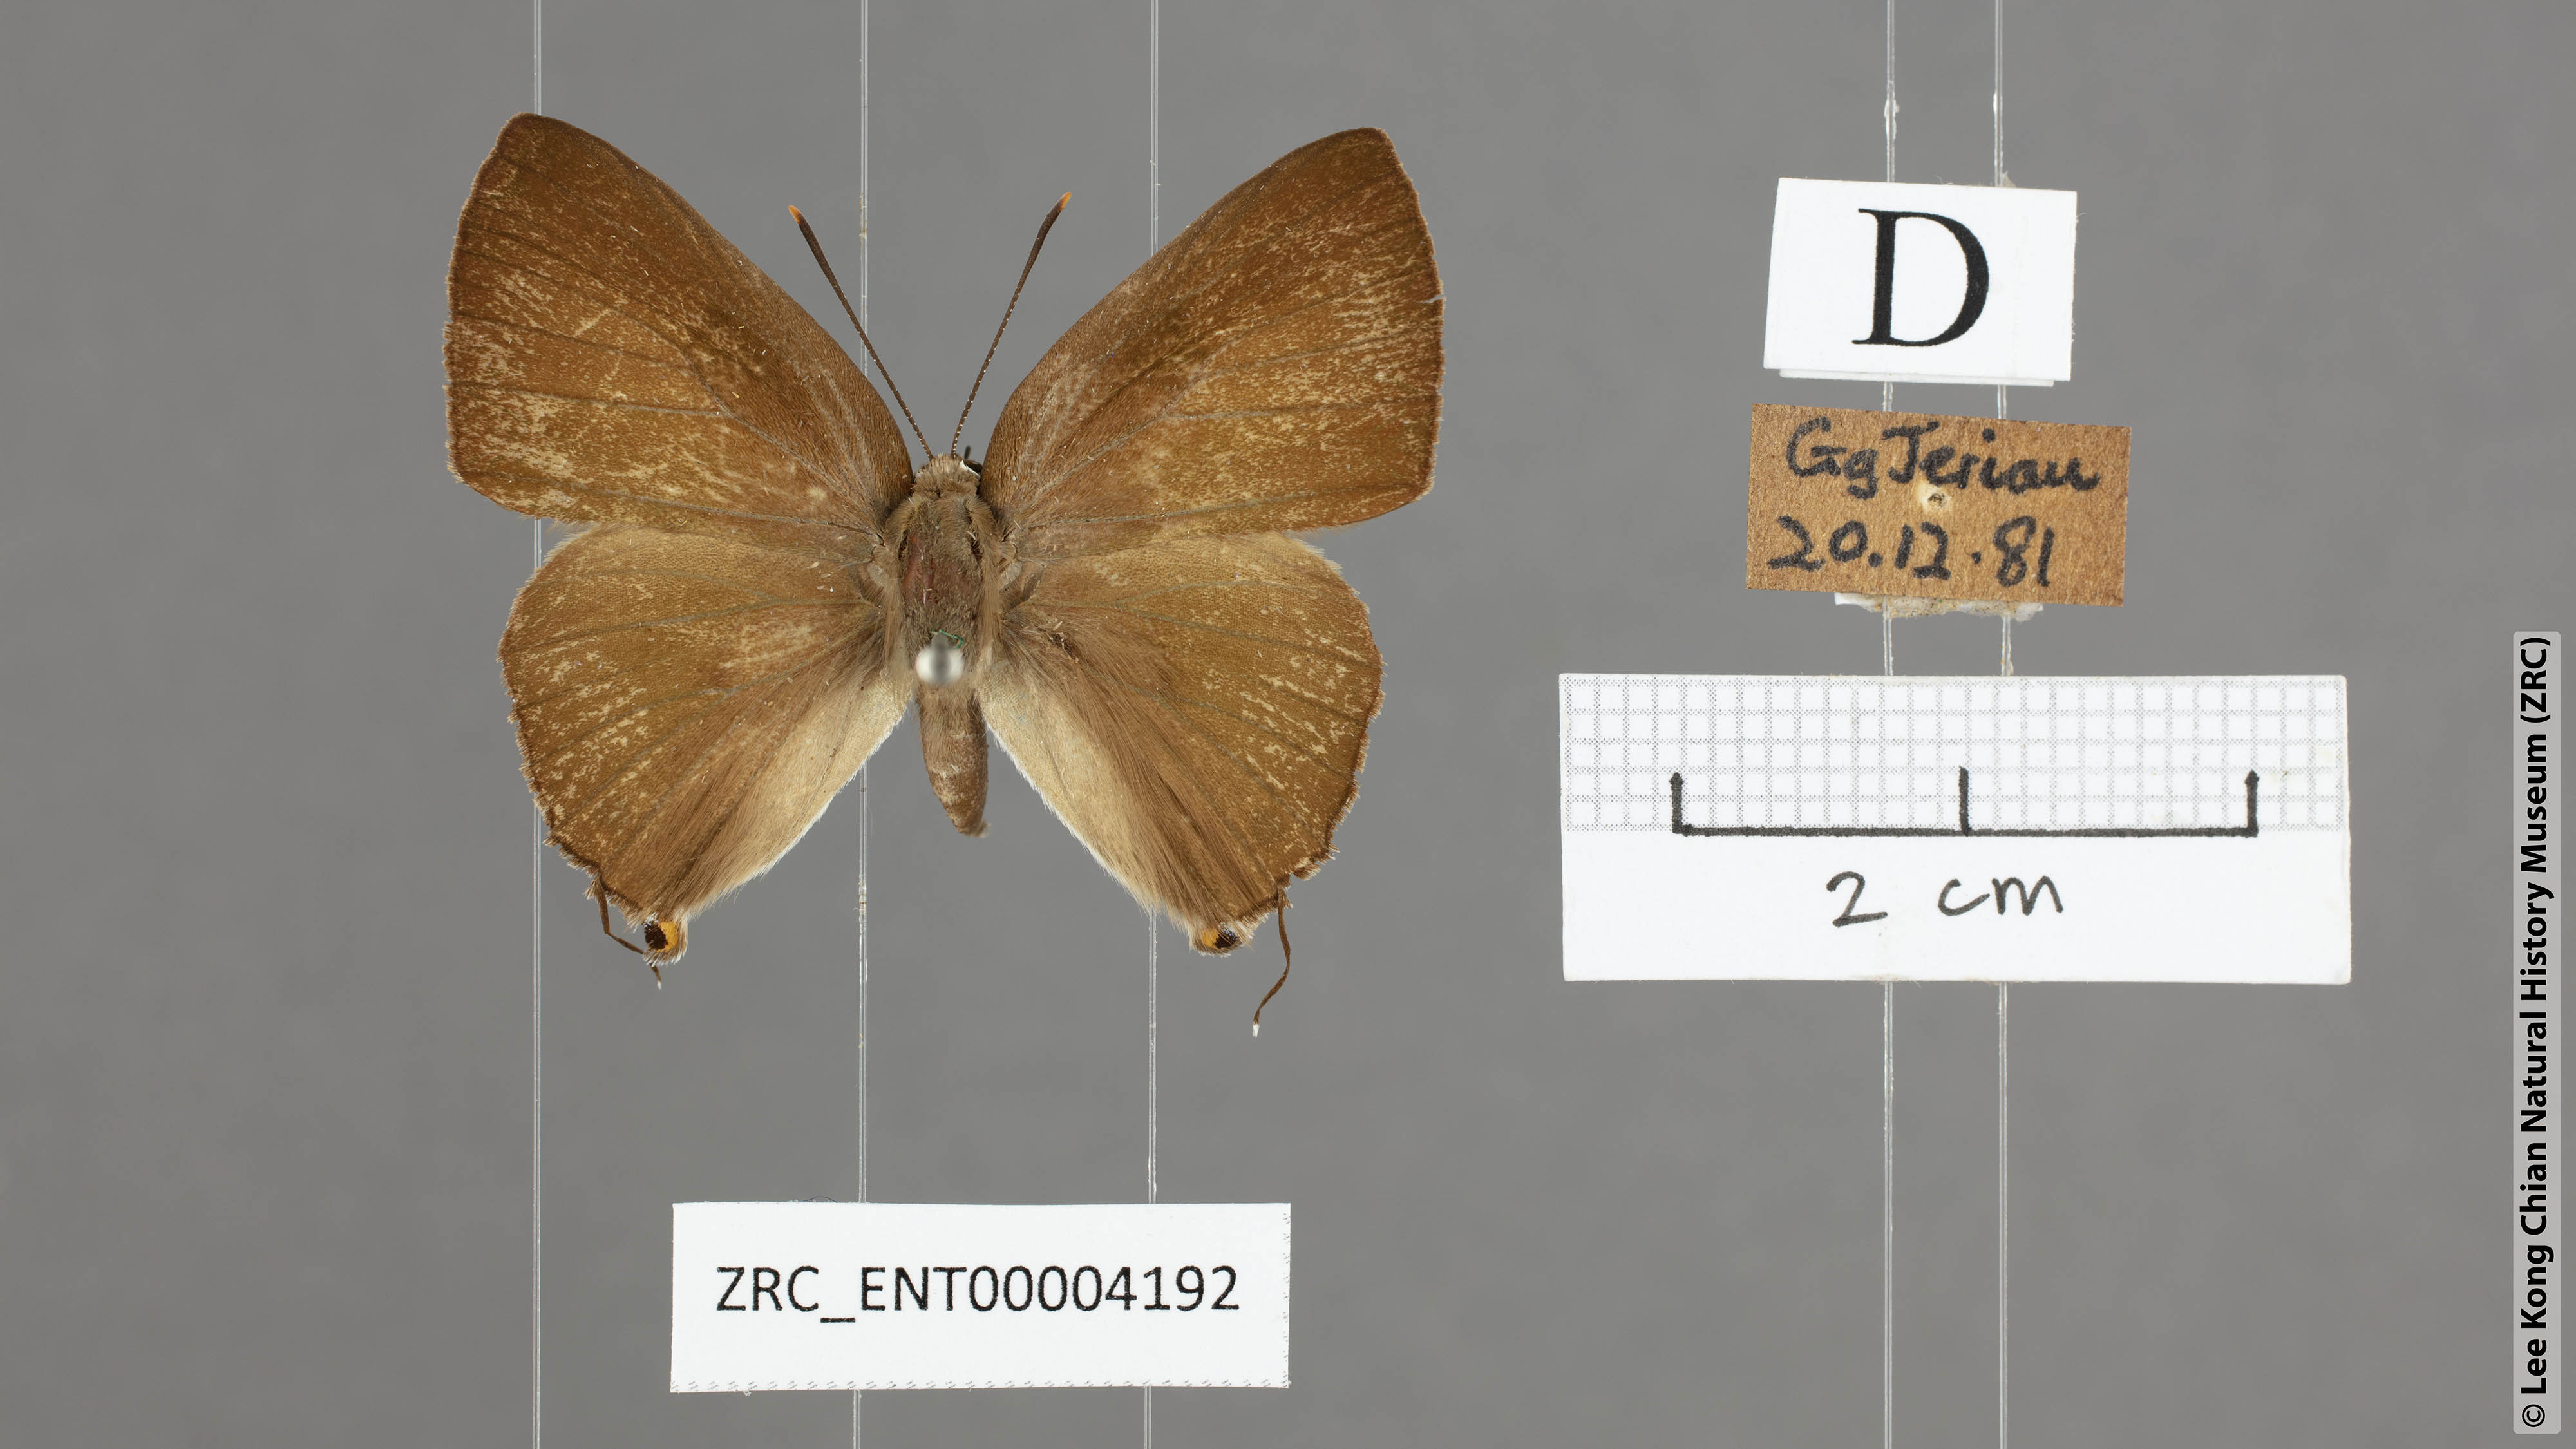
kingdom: Animalia
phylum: Arthropoda
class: Insecta
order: Lepidoptera
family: Lycaenidae
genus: Deudorix
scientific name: Deudorix epijarbas
